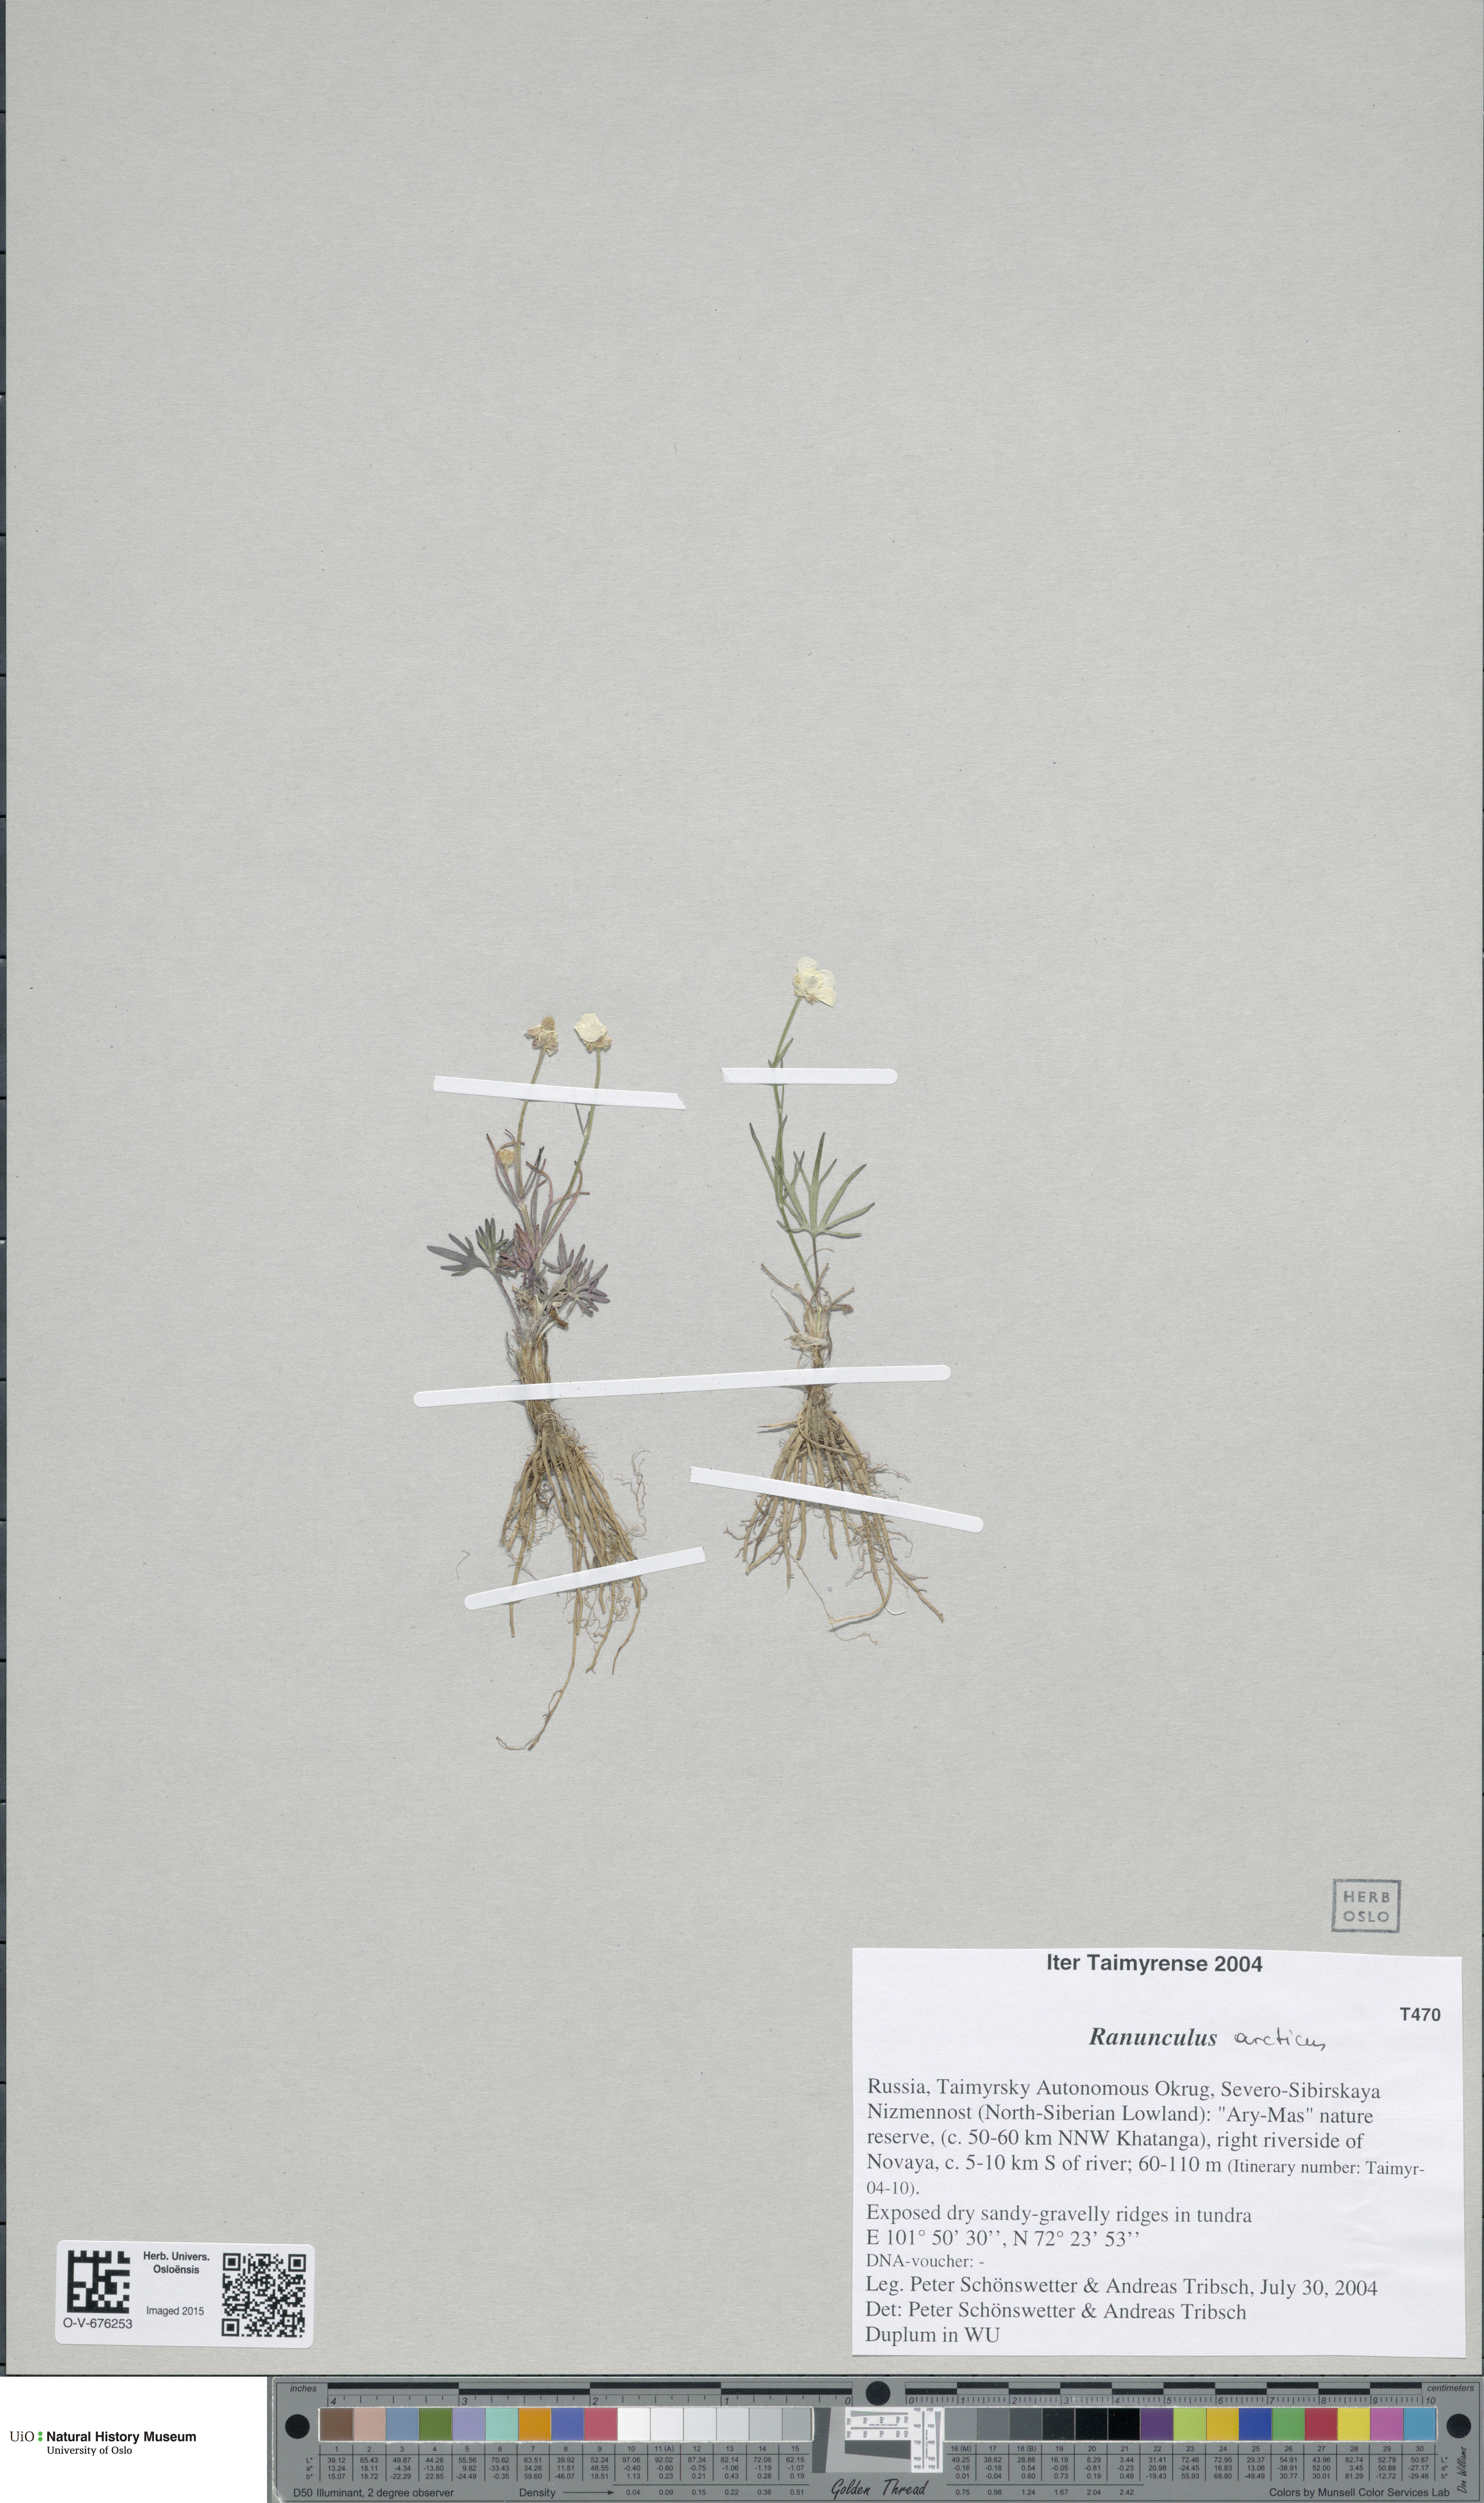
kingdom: Plantae
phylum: Tracheophyta
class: Magnoliopsida
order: Ranunculales
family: Ranunculaceae
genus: Ranunculus
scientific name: Ranunculus arcticus
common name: Bird's-foot buttercup
